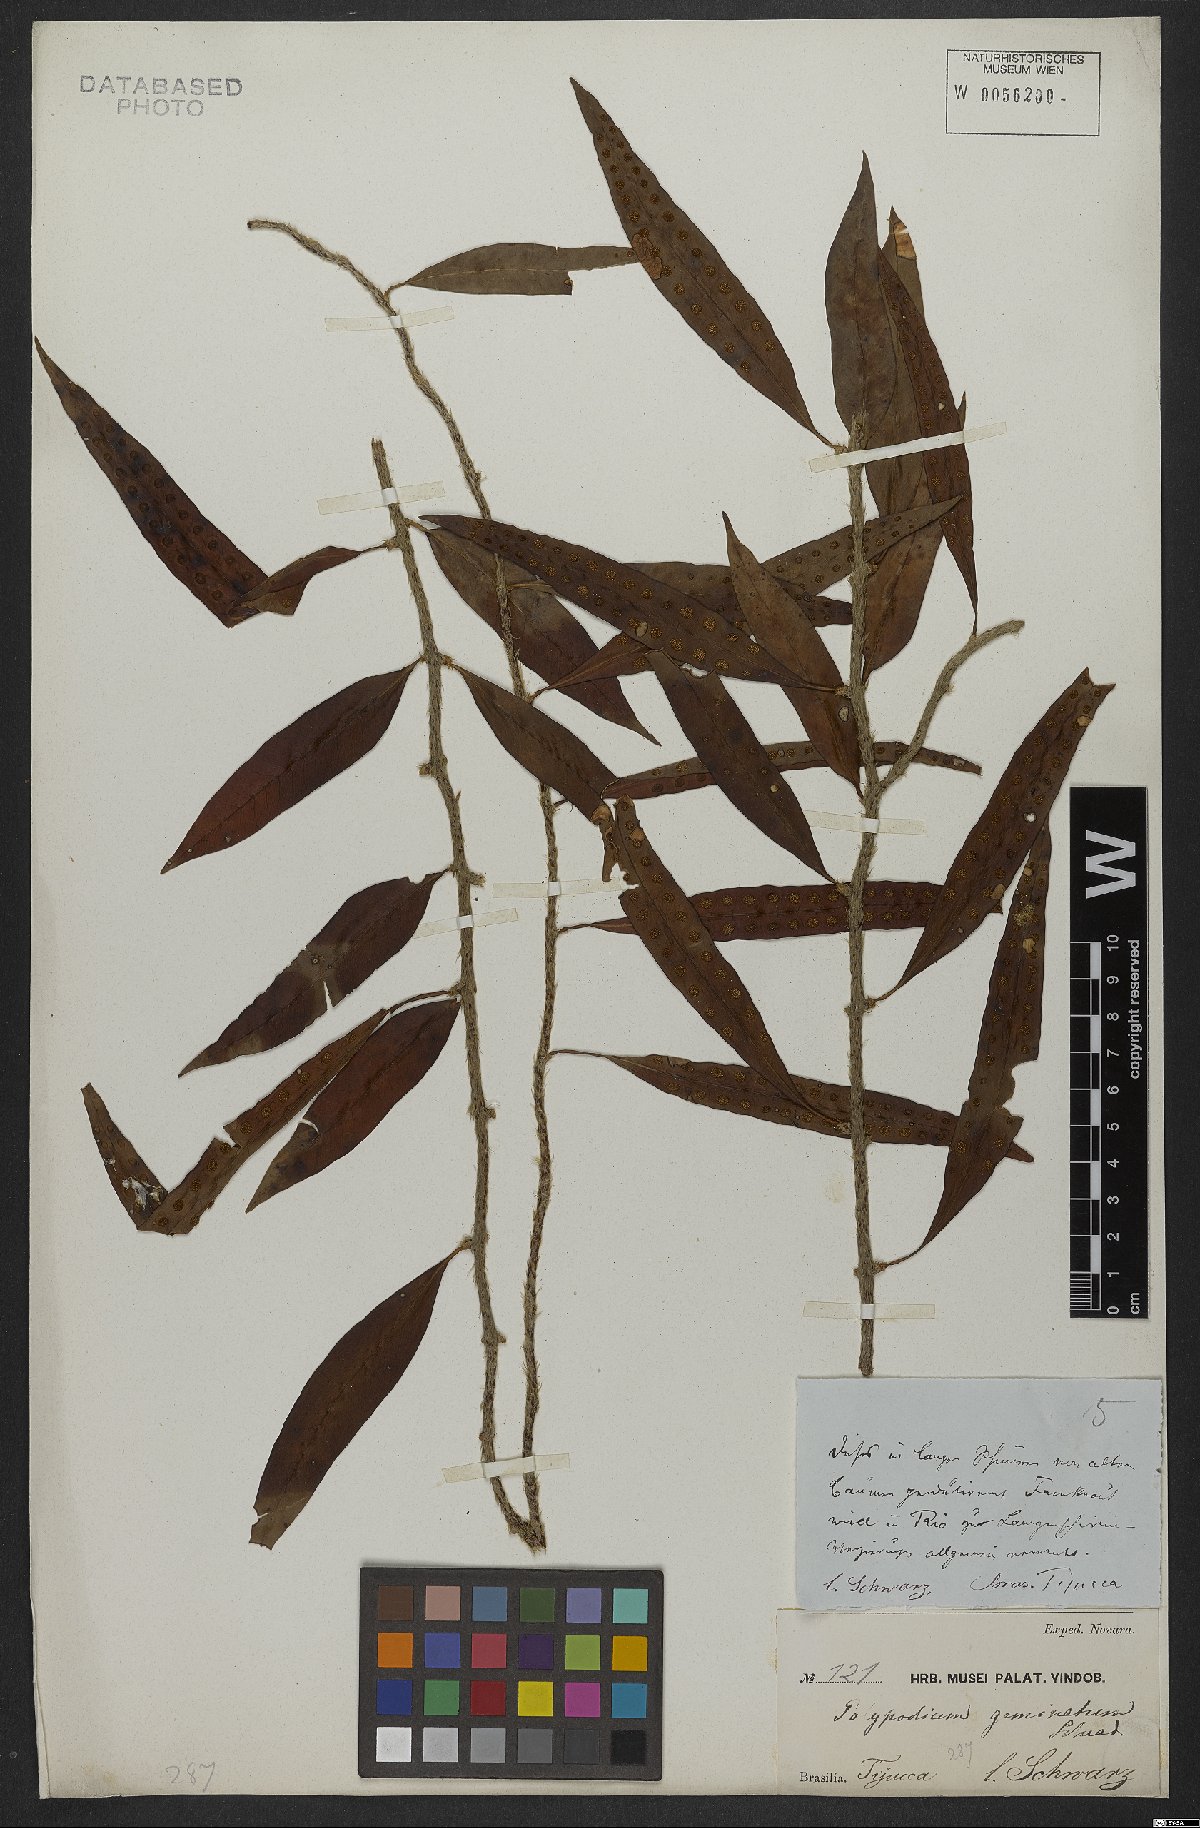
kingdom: Plantae
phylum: Tracheophyta
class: Polypodiopsida
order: Polypodiales
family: Polypodiaceae
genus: Microgramma
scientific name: Microgramma geminata
